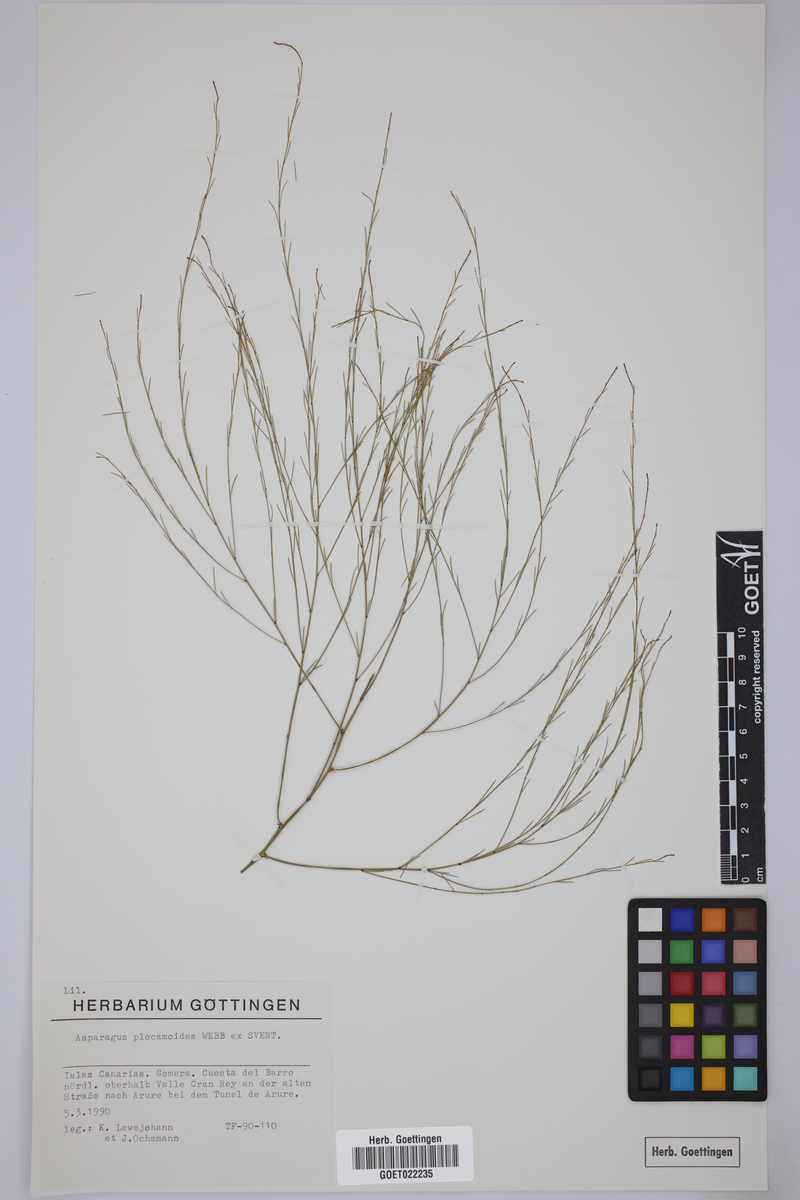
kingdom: Plantae
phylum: Tracheophyta
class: Liliopsida
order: Asparagales
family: Asparagaceae
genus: Asparagus
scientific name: Asparagus plocamoides
